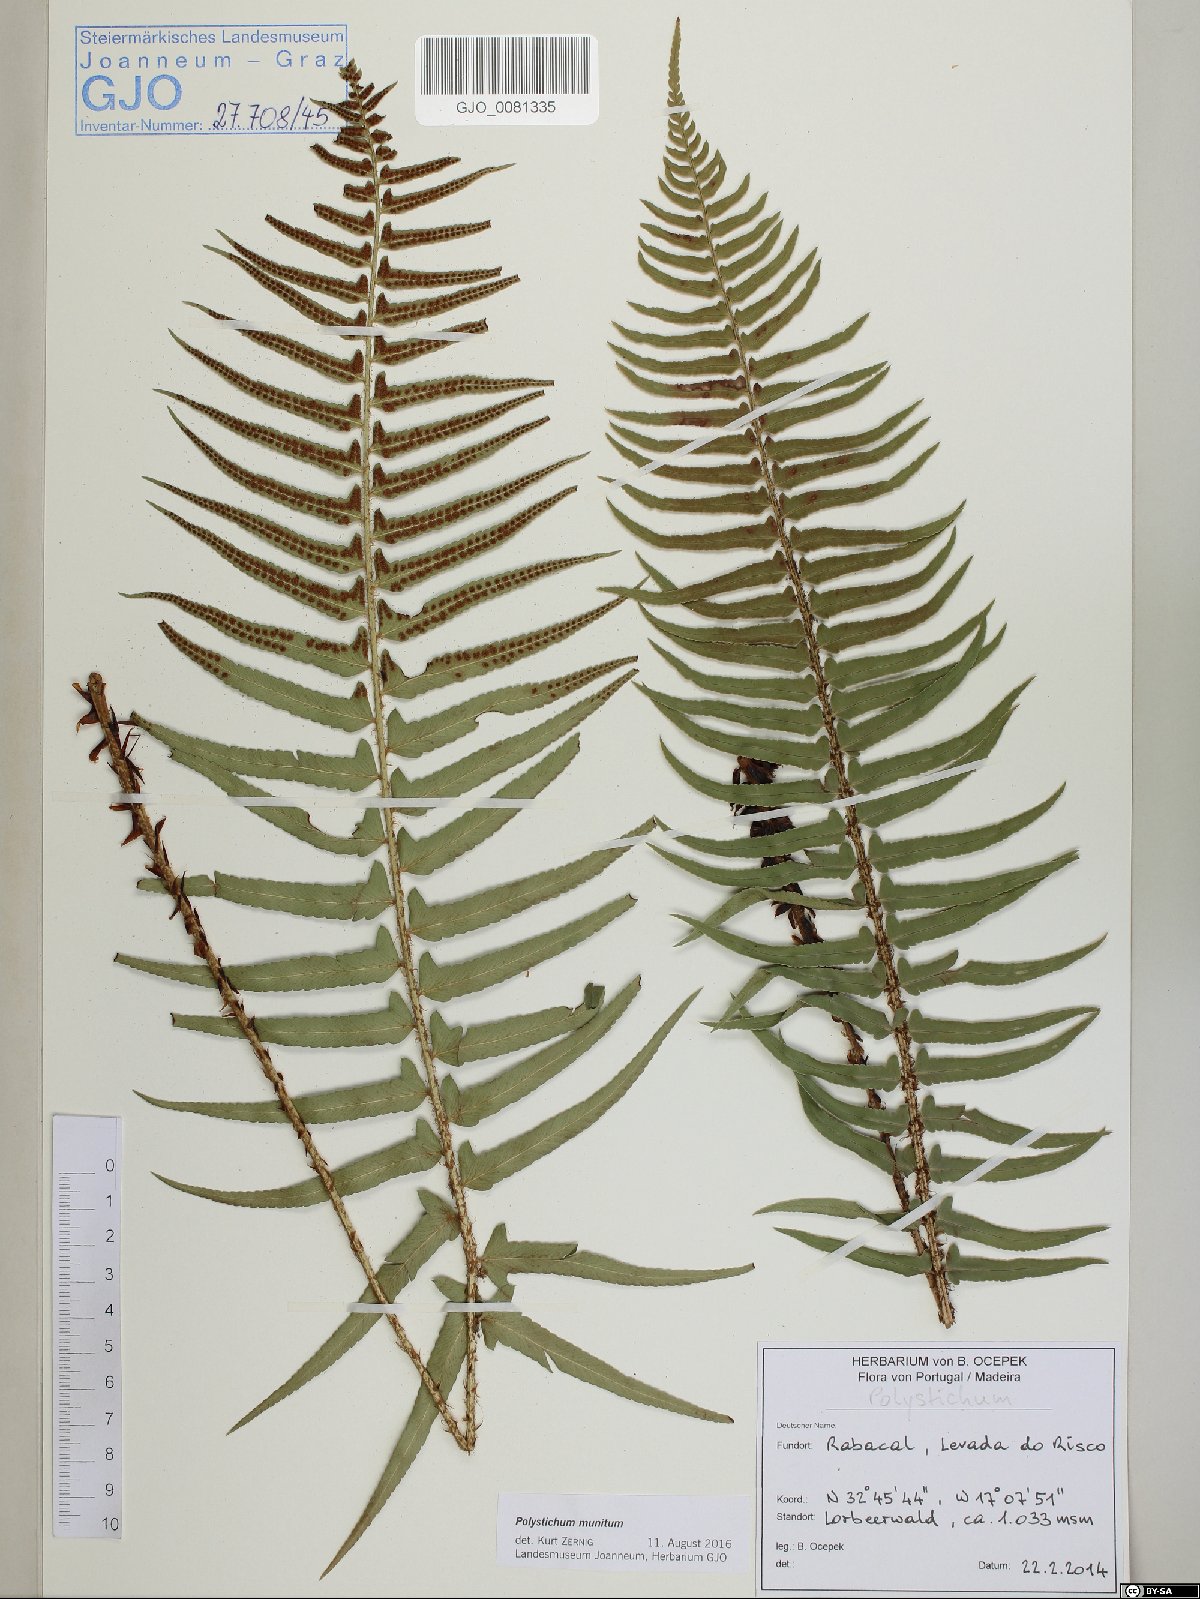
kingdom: Plantae
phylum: Tracheophyta
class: Polypodiopsida
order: Polypodiales
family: Dryopteridaceae
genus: Polystichum
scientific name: Polystichum falcinellum
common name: Madeira sword-fern
